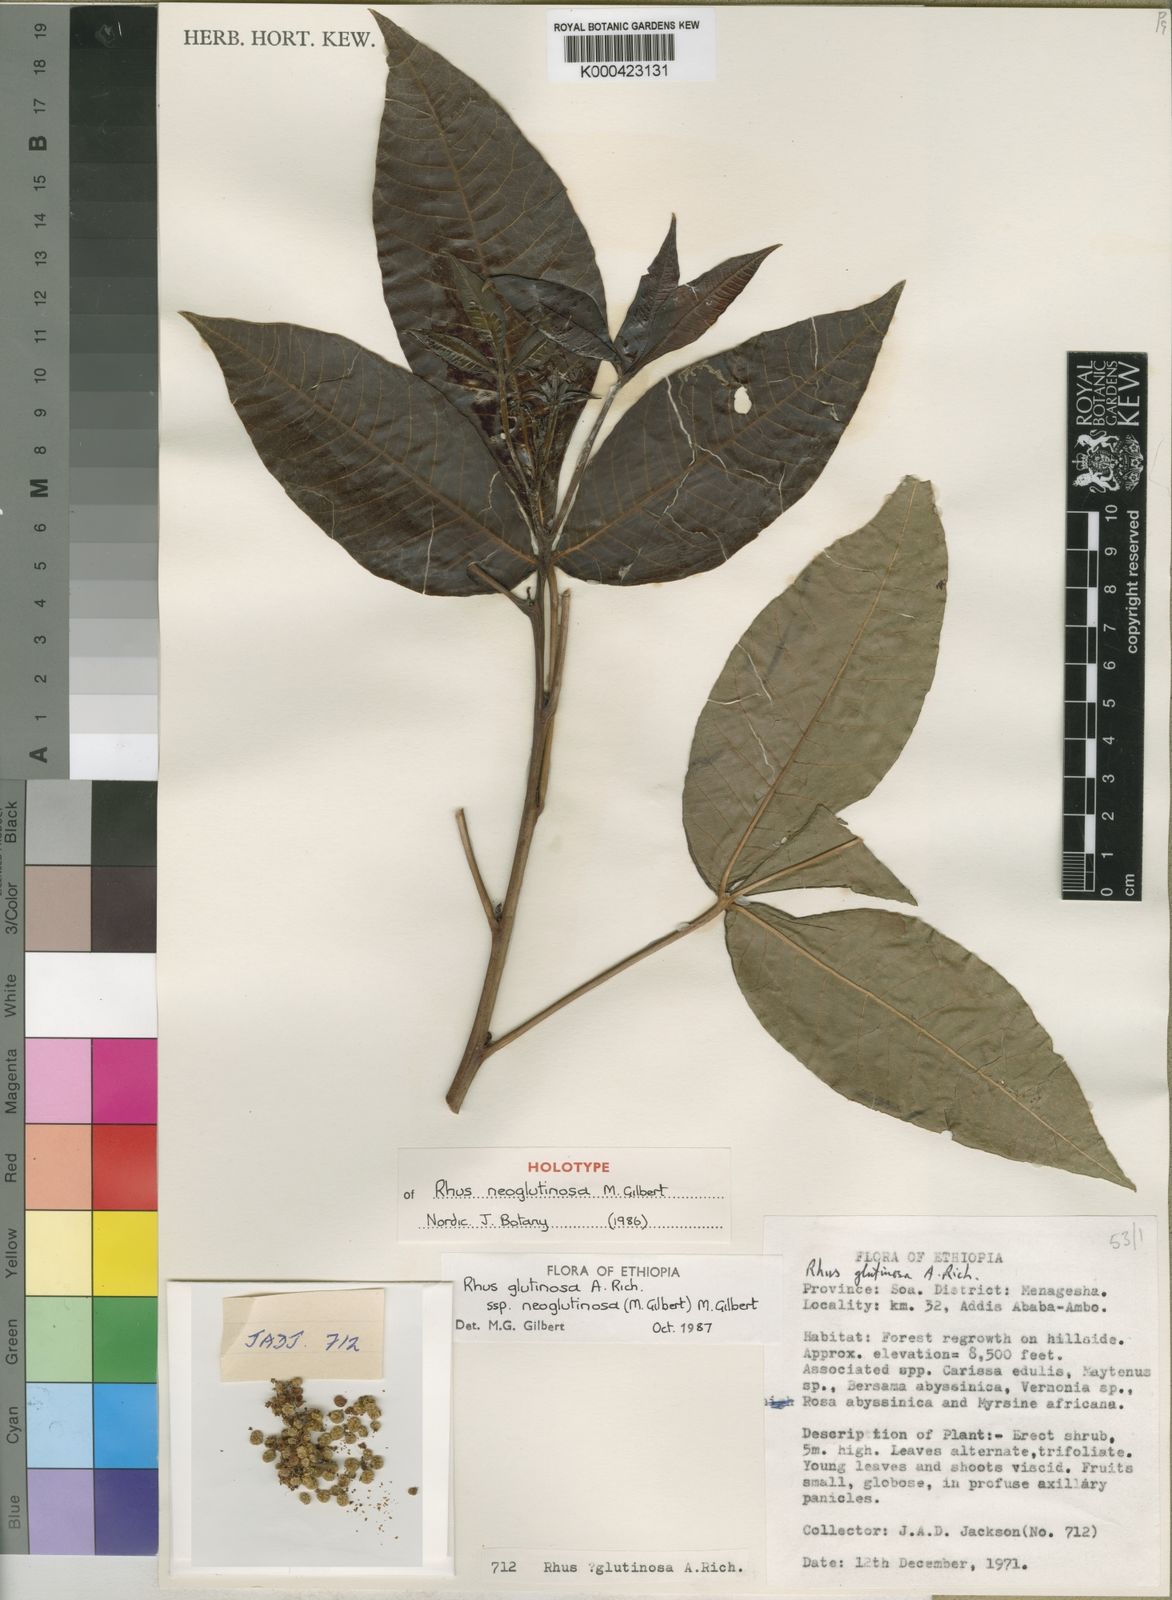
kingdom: Plantae
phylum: Tracheophyta
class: Magnoliopsida
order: Sapindales
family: Anacardiaceae
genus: Searsia
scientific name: Searsia glutinosa
